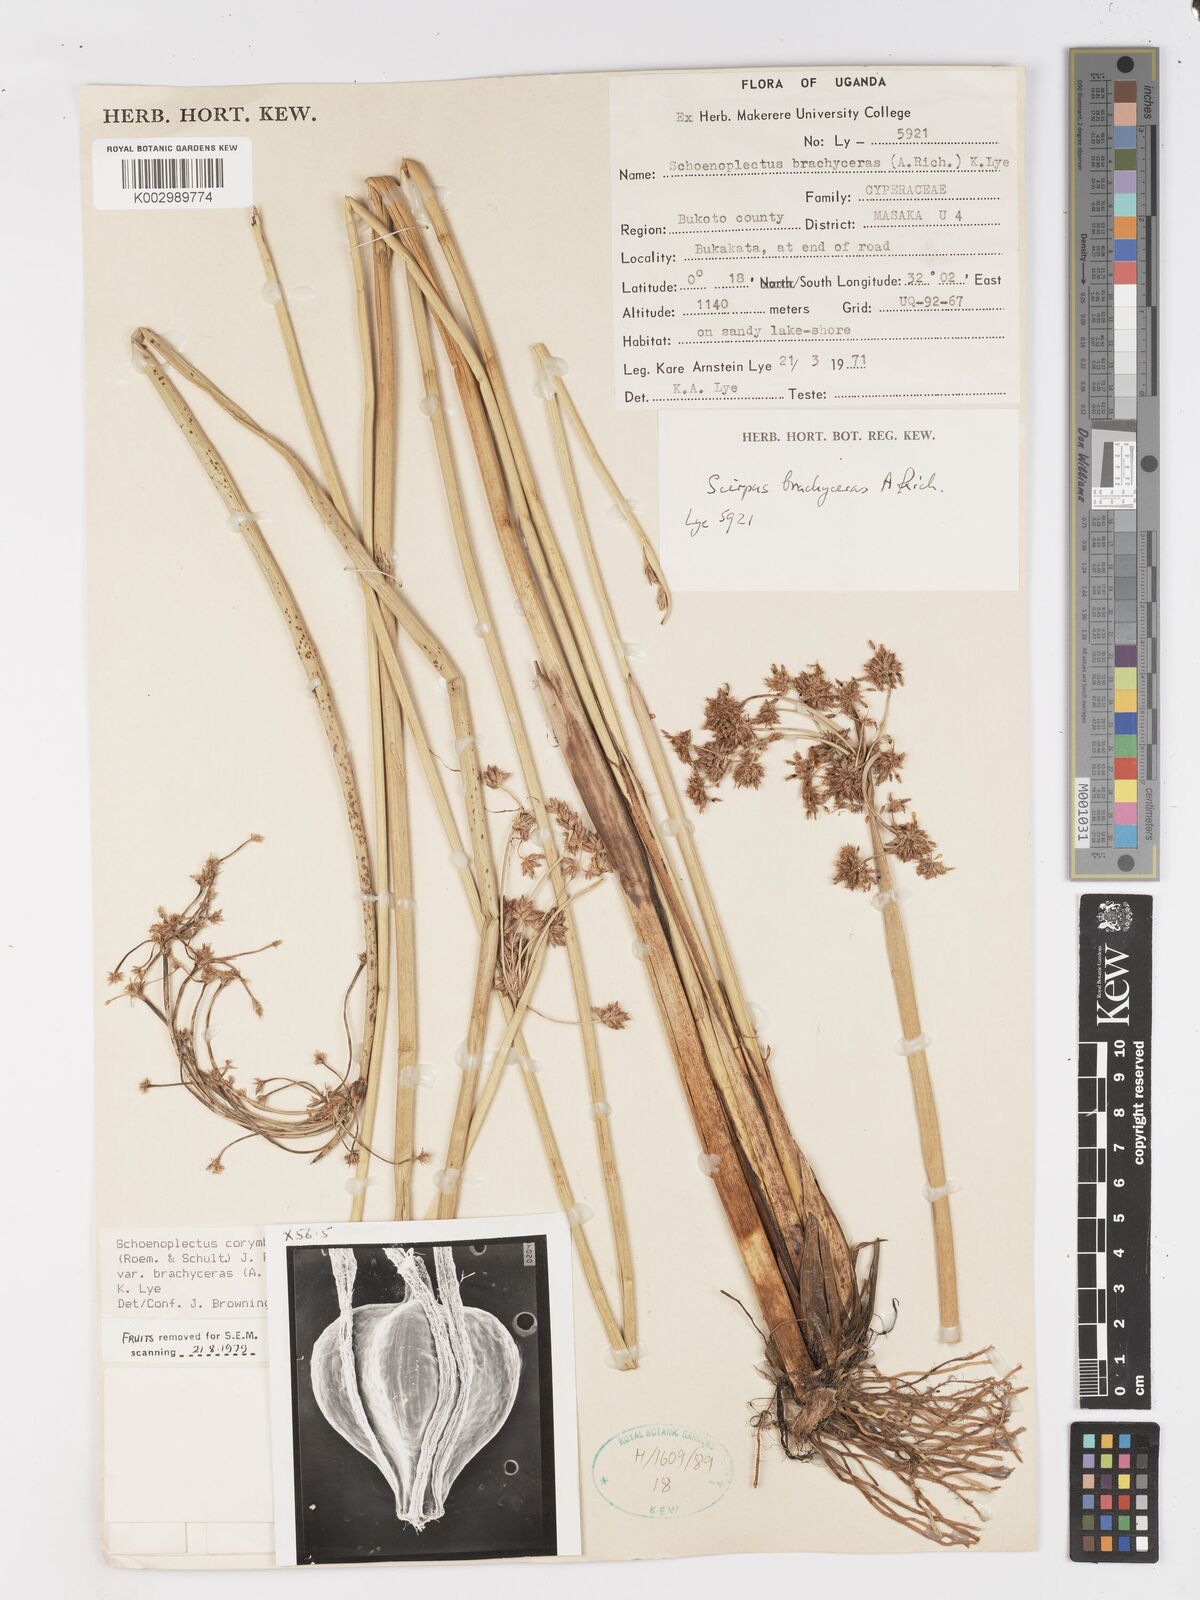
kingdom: Plantae
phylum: Tracheophyta
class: Liliopsida
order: Poales
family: Cyperaceae
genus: Schoenoplectiella
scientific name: Schoenoplectiella brachyceras
